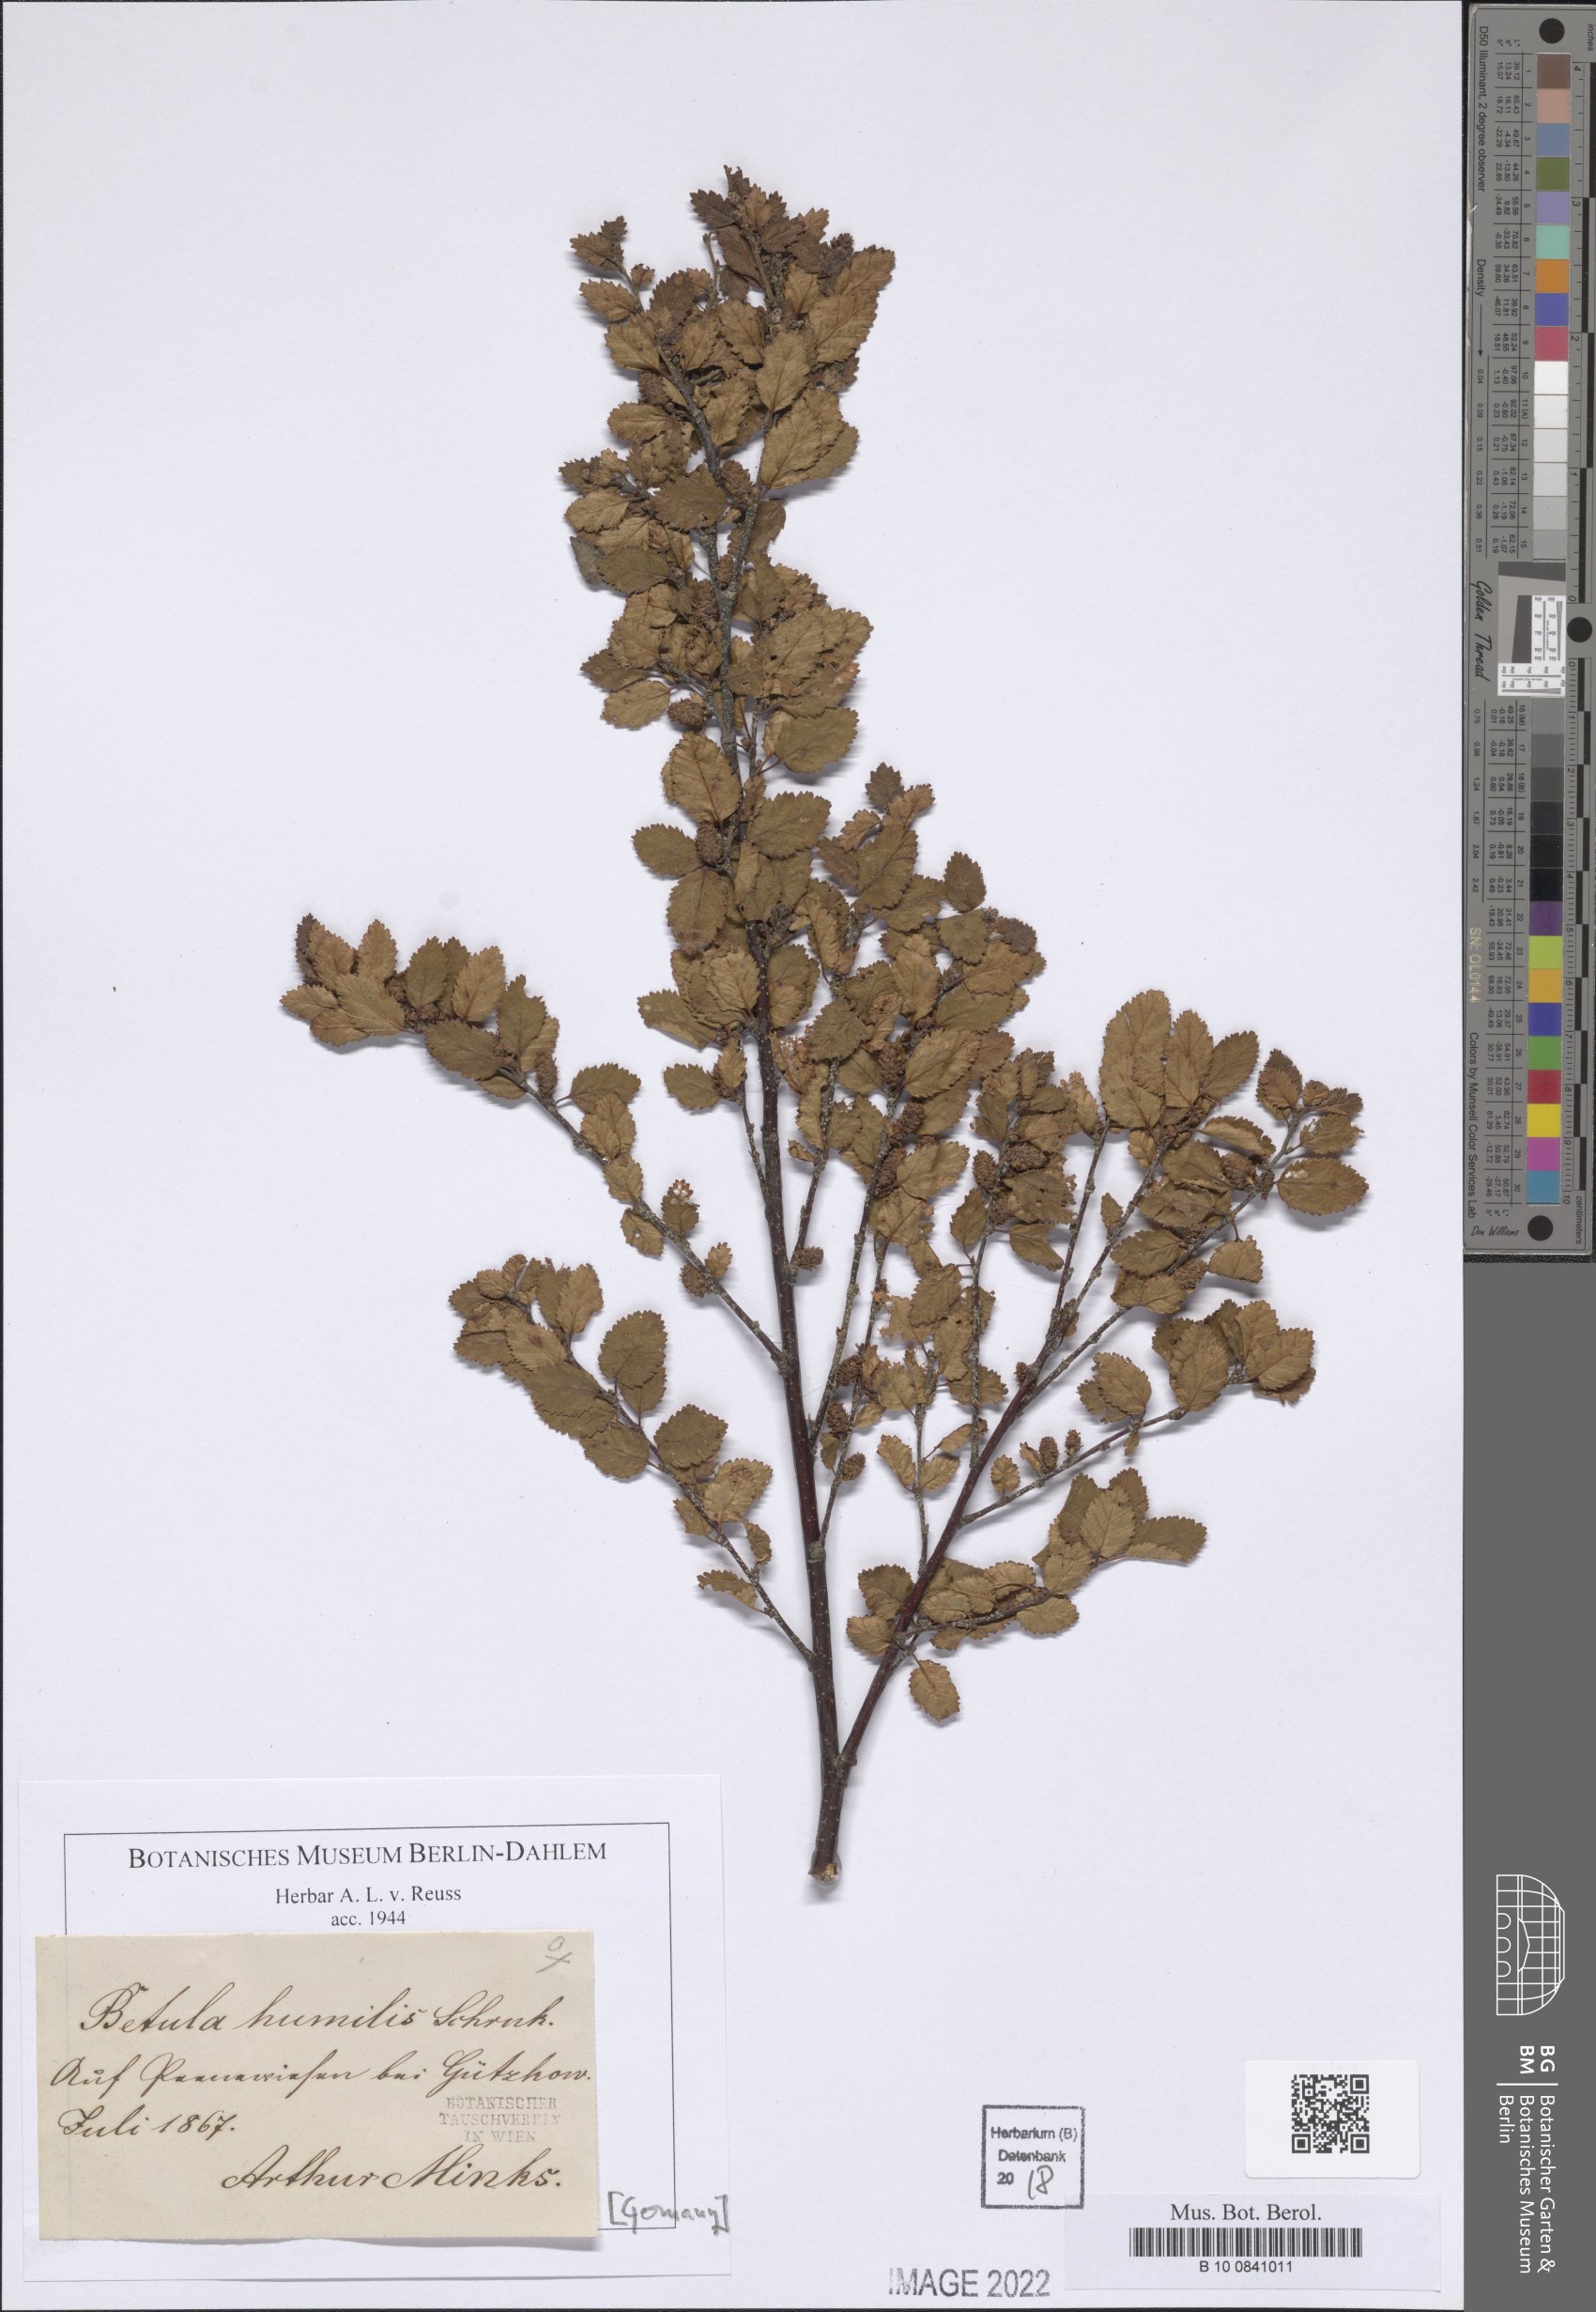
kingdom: Plantae
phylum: Tracheophyta
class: Magnoliopsida
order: Fagales
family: Betulaceae
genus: Betula
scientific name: Betula humilis
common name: Shrubby birch
